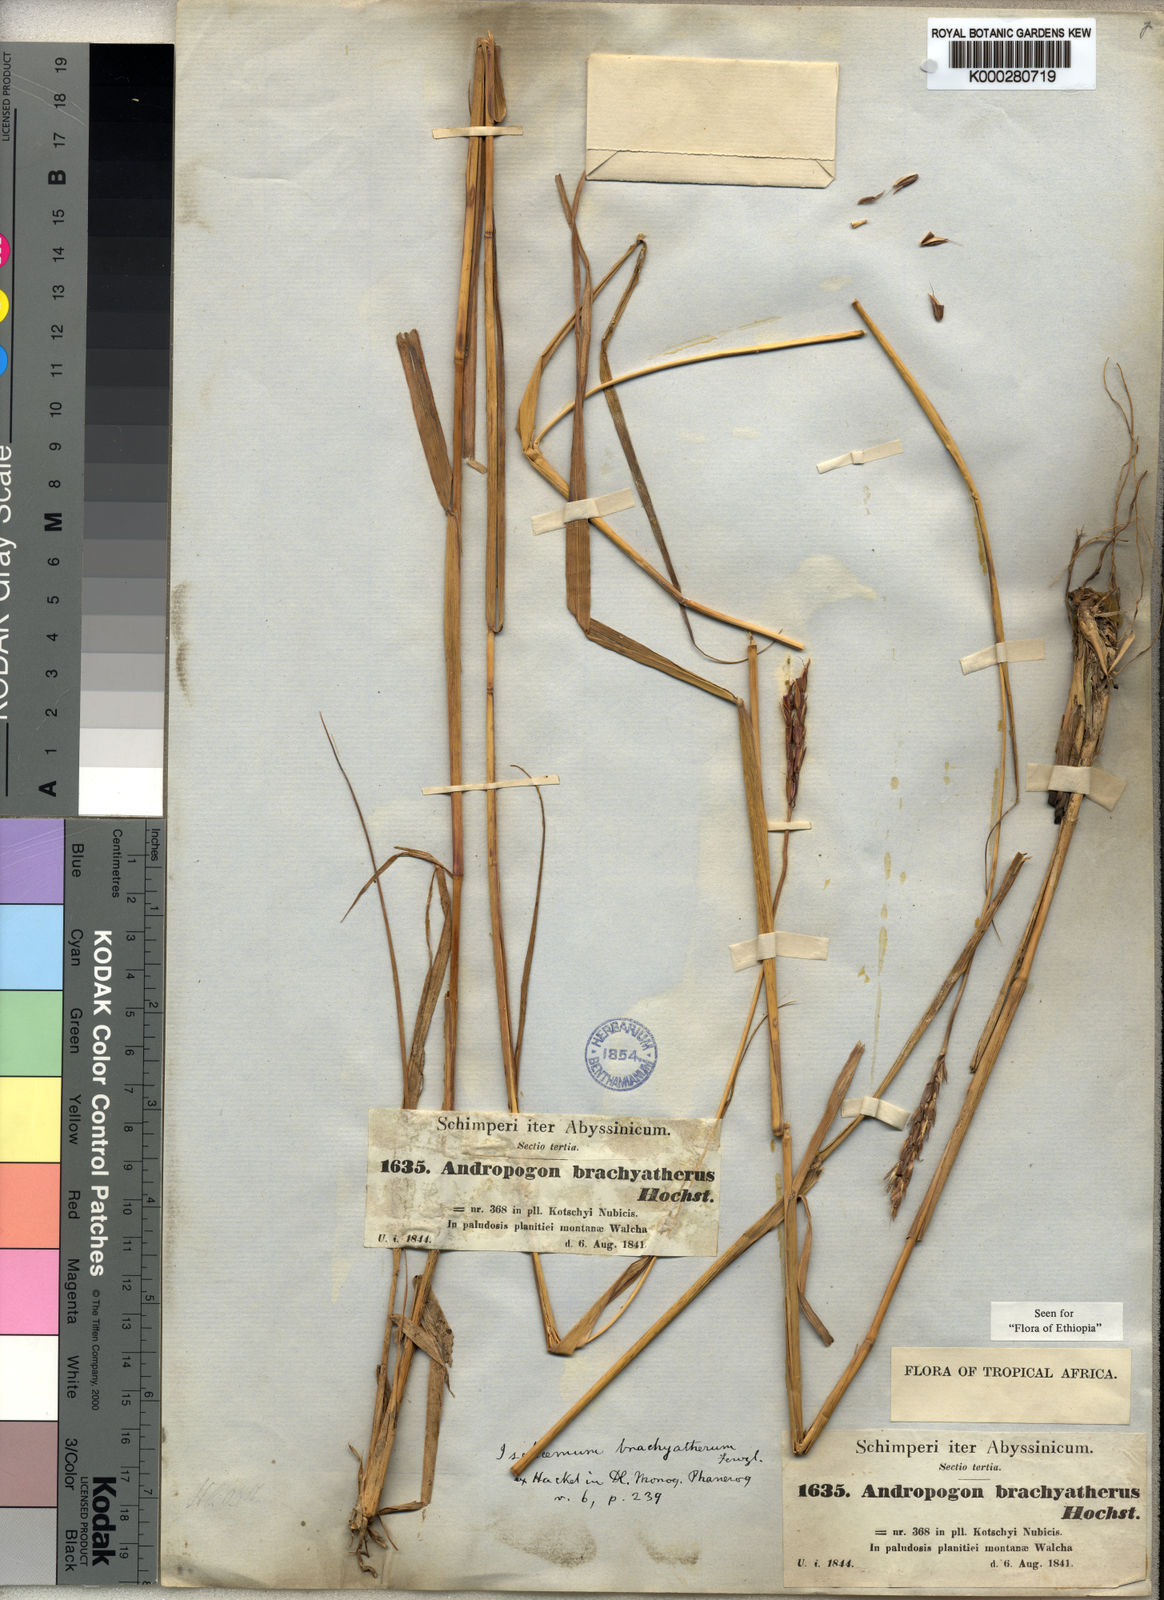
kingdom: Plantae
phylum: Tracheophyta
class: Liliopsida
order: Poales
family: Poaceae
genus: Ischaemum
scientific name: Ischaemum afrum
